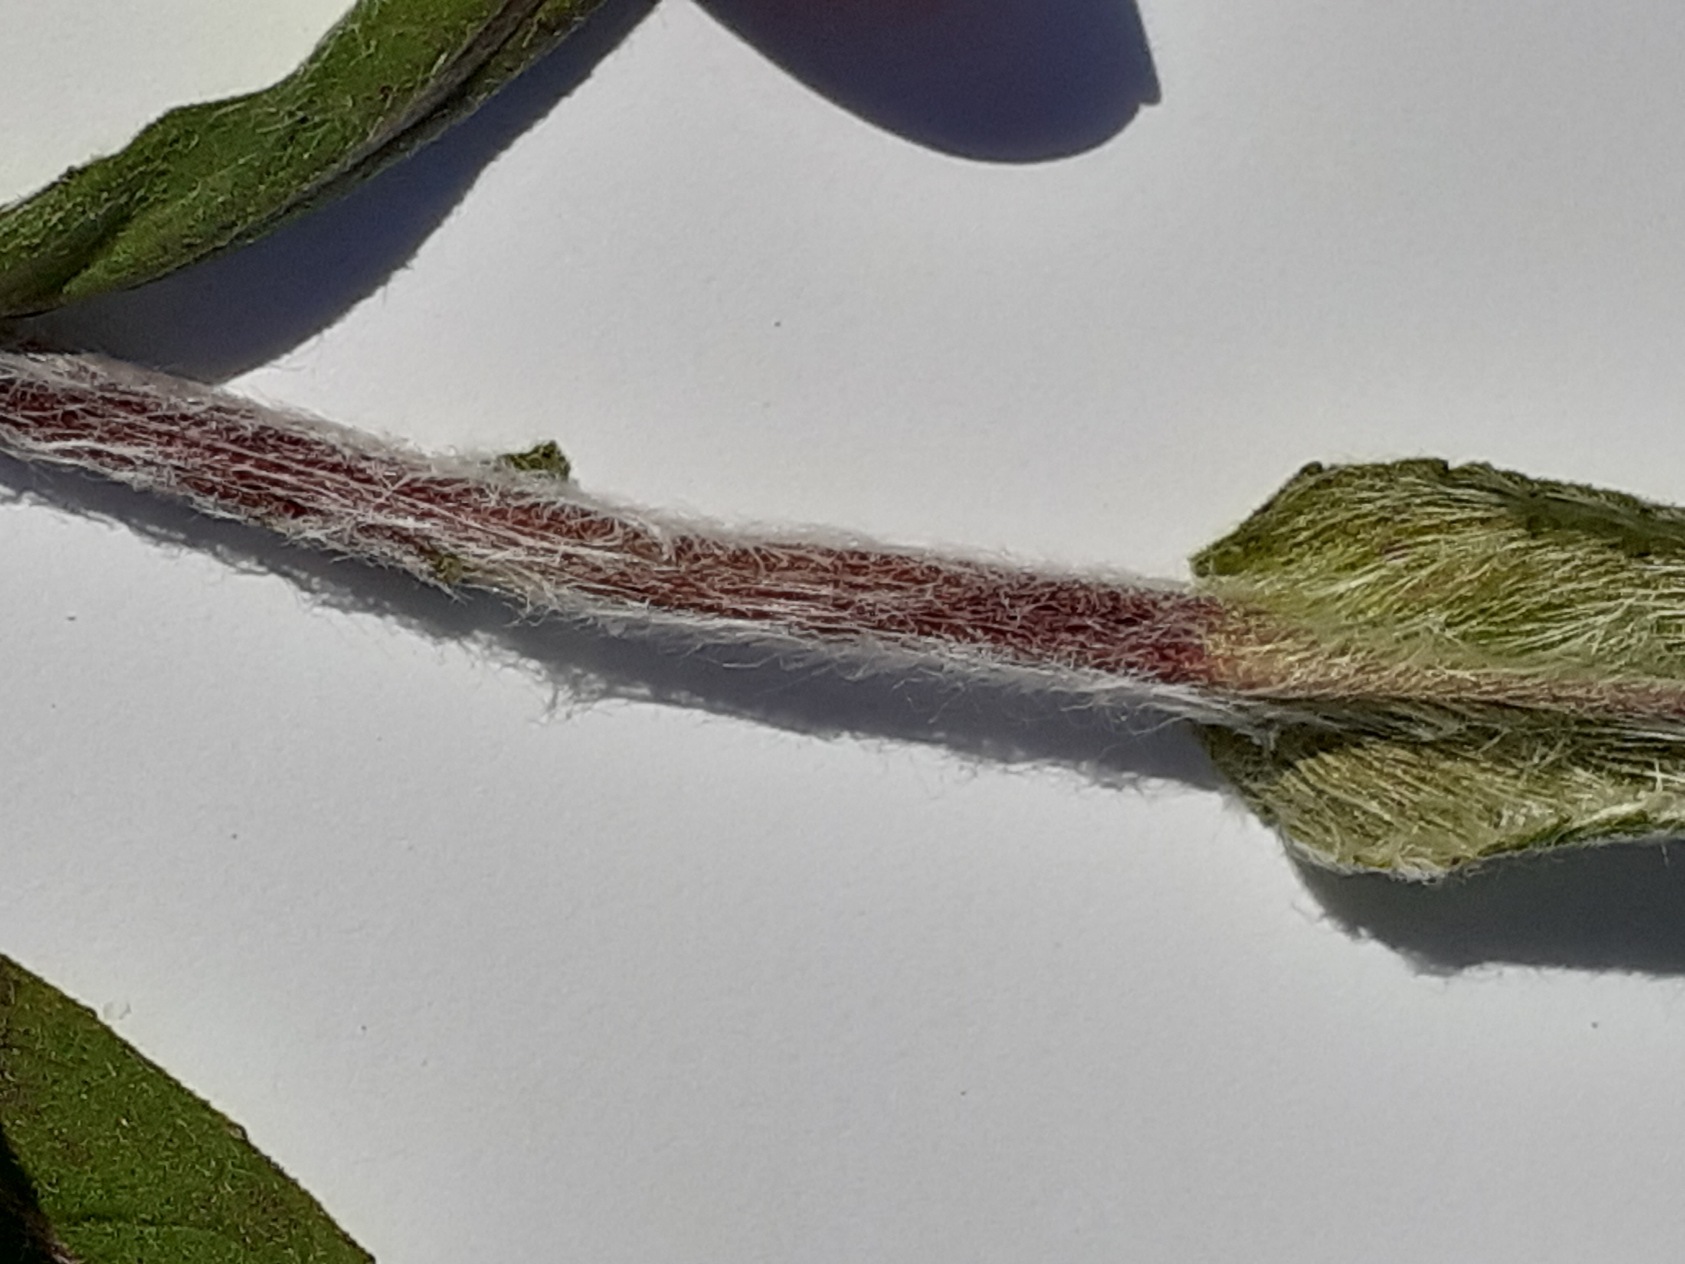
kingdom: Plantae
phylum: Tracheophyta
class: Magnoliopsida
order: Asterales
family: Asteraceae
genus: Pentanema
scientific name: Pentanema britannicum
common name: Soløje-alant
